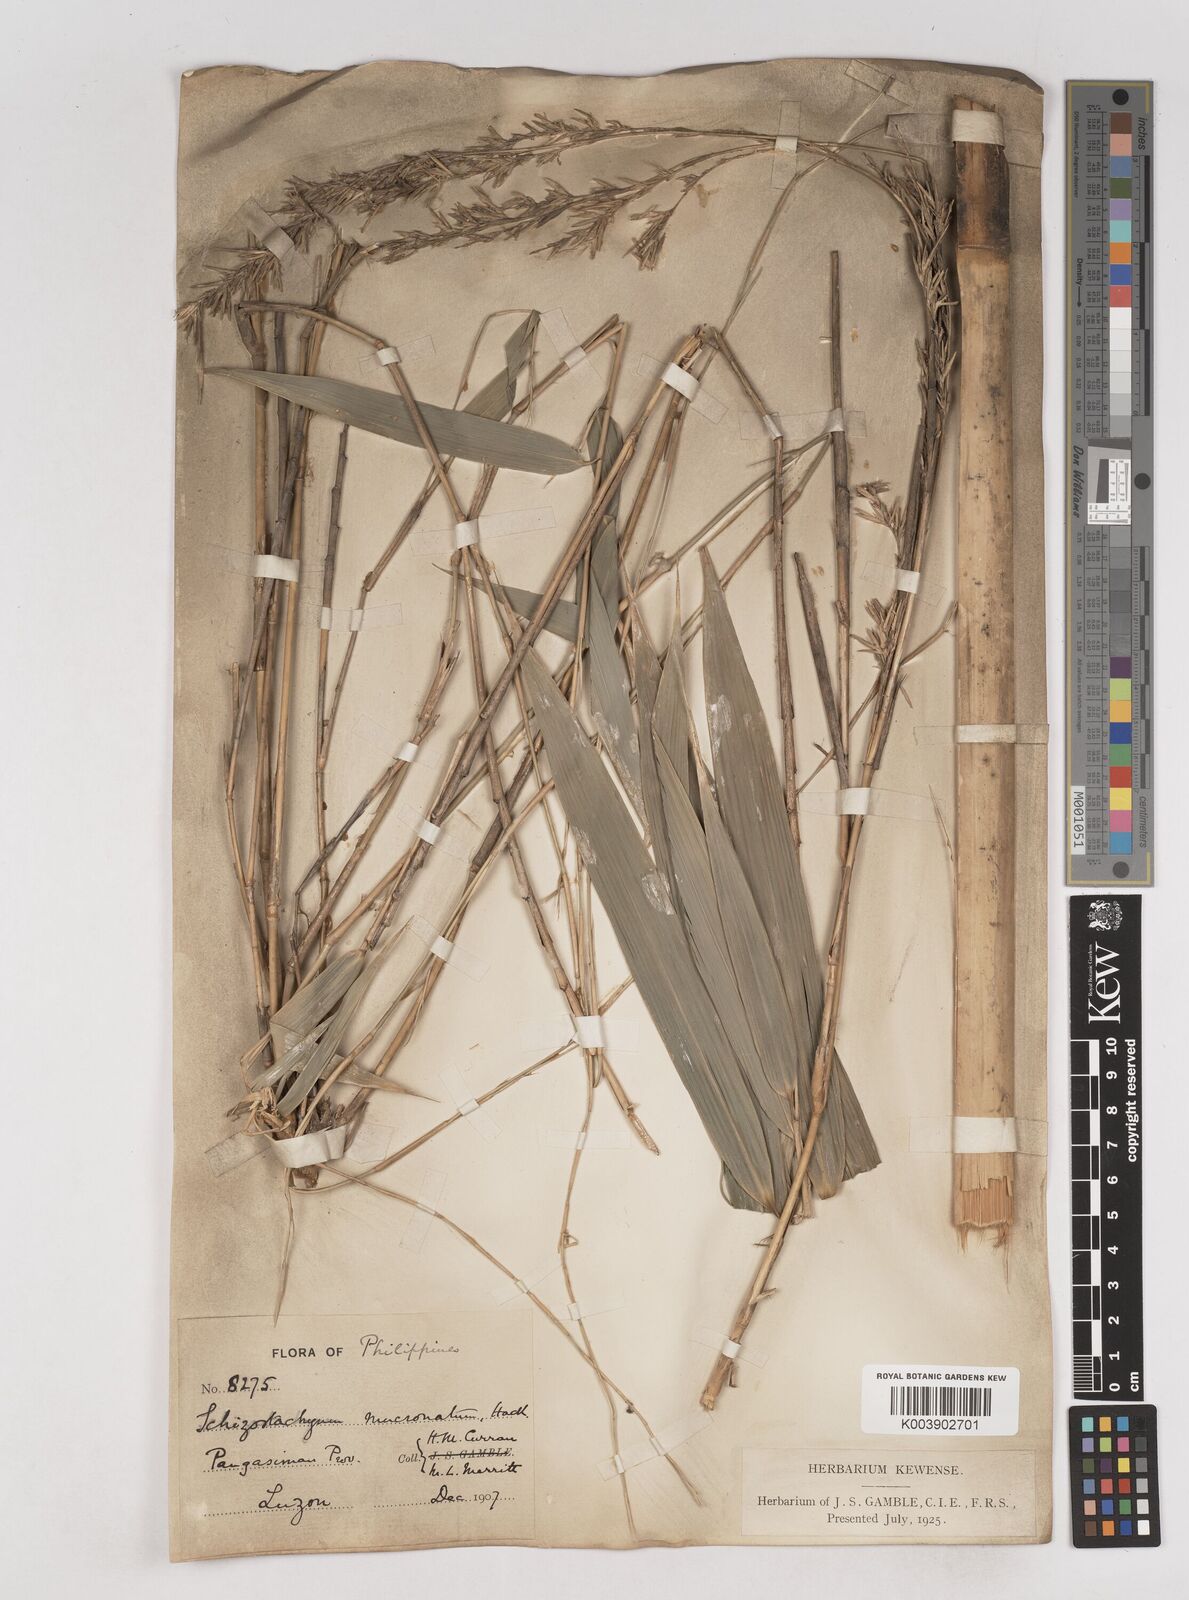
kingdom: Plantae
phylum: Tracheophyta
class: Liliopsida
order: Poales
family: Poaceae
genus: Schizostachyum
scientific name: Schizostachyum lumampao
